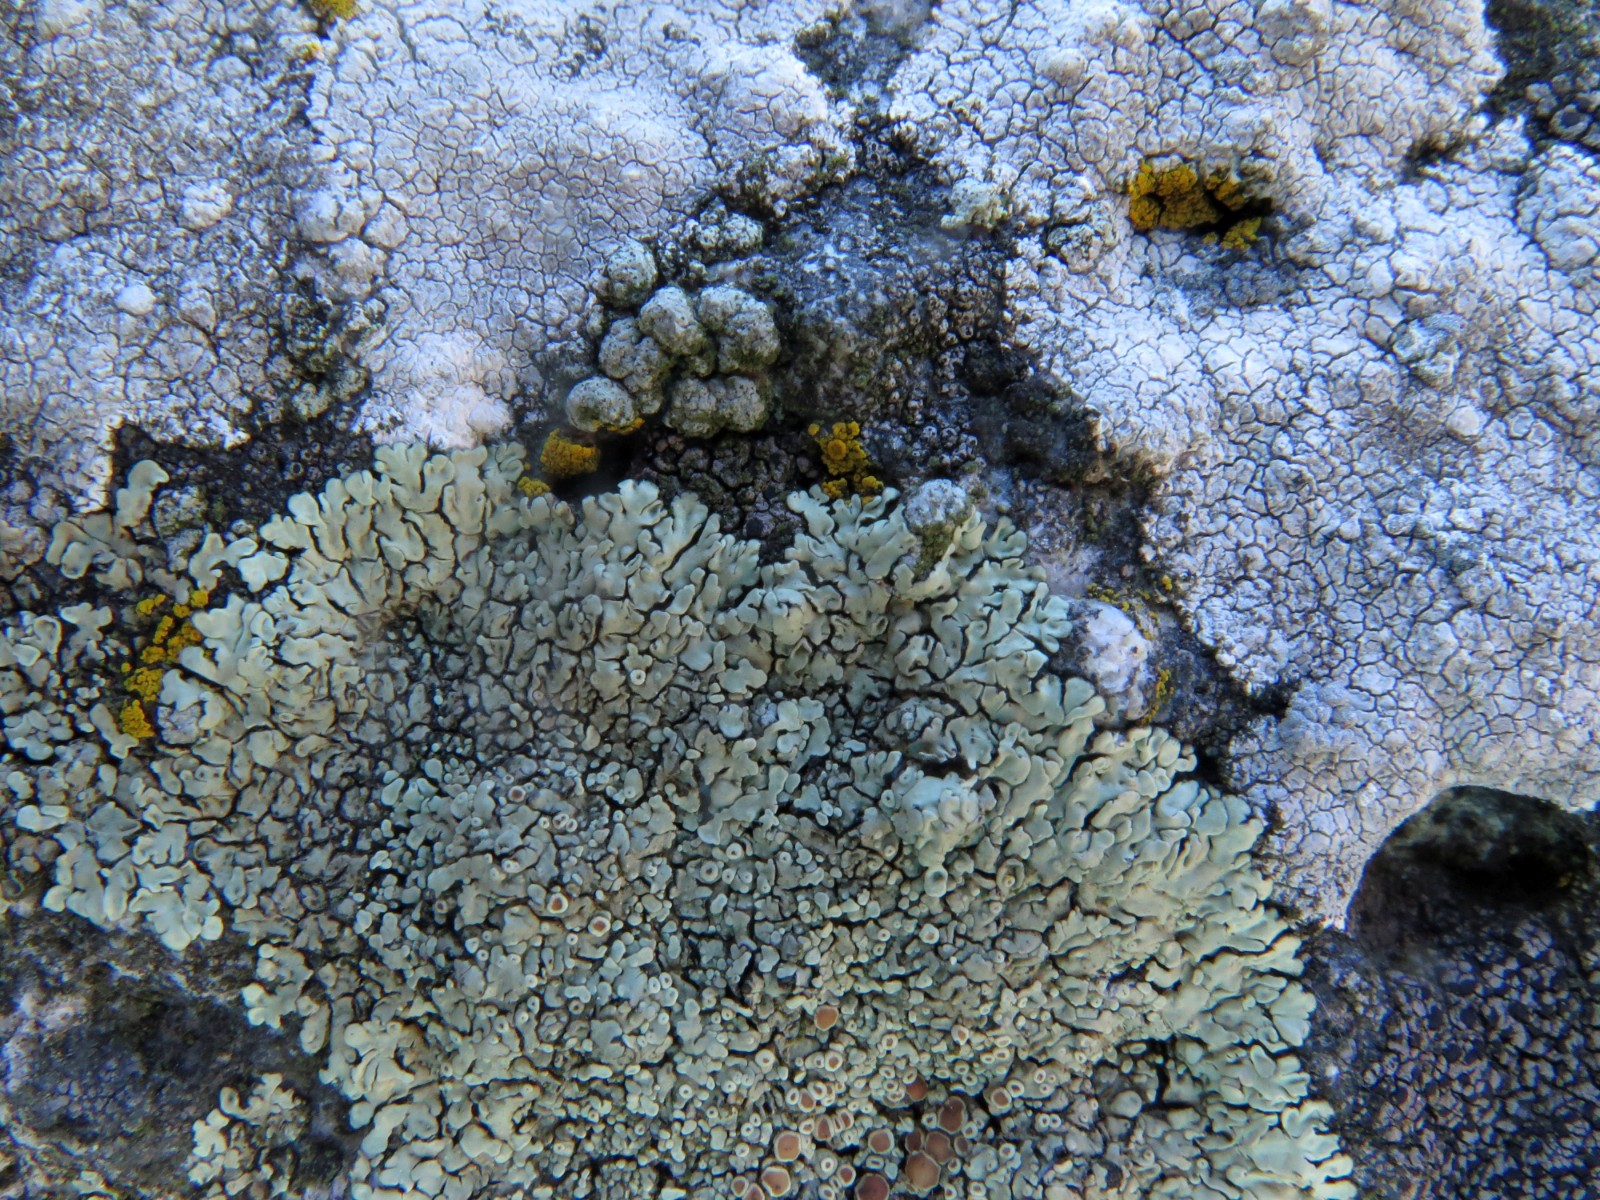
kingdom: Fungi
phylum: Ascomycota
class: Lecanoromycetes
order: Lecanorales
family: Lecanoraceae
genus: Protoparmeliopsis
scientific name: Protoparmeliopsis muralis
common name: randfliget kantskivelav
